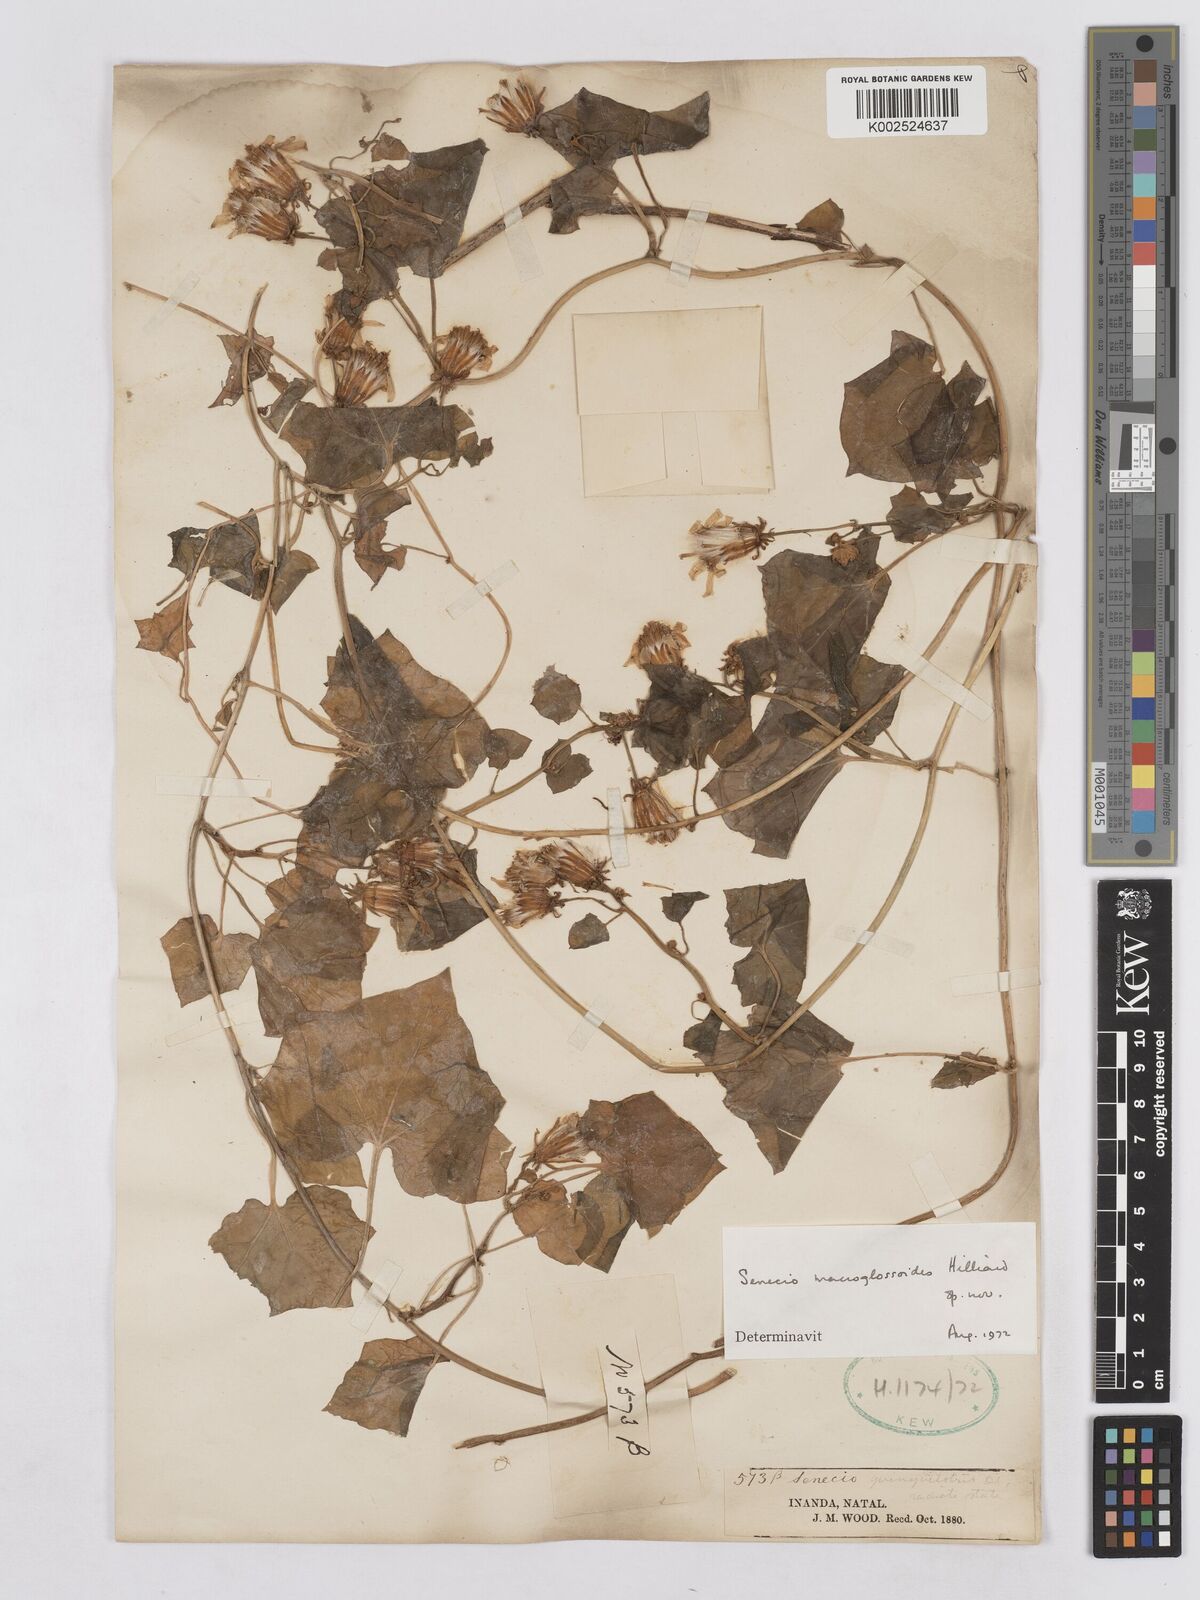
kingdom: Plantae
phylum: Tracheophyta
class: Magnoliopsida
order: Asterales
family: Asteraceae
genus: Senecio
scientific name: Senecio macroglossoides
